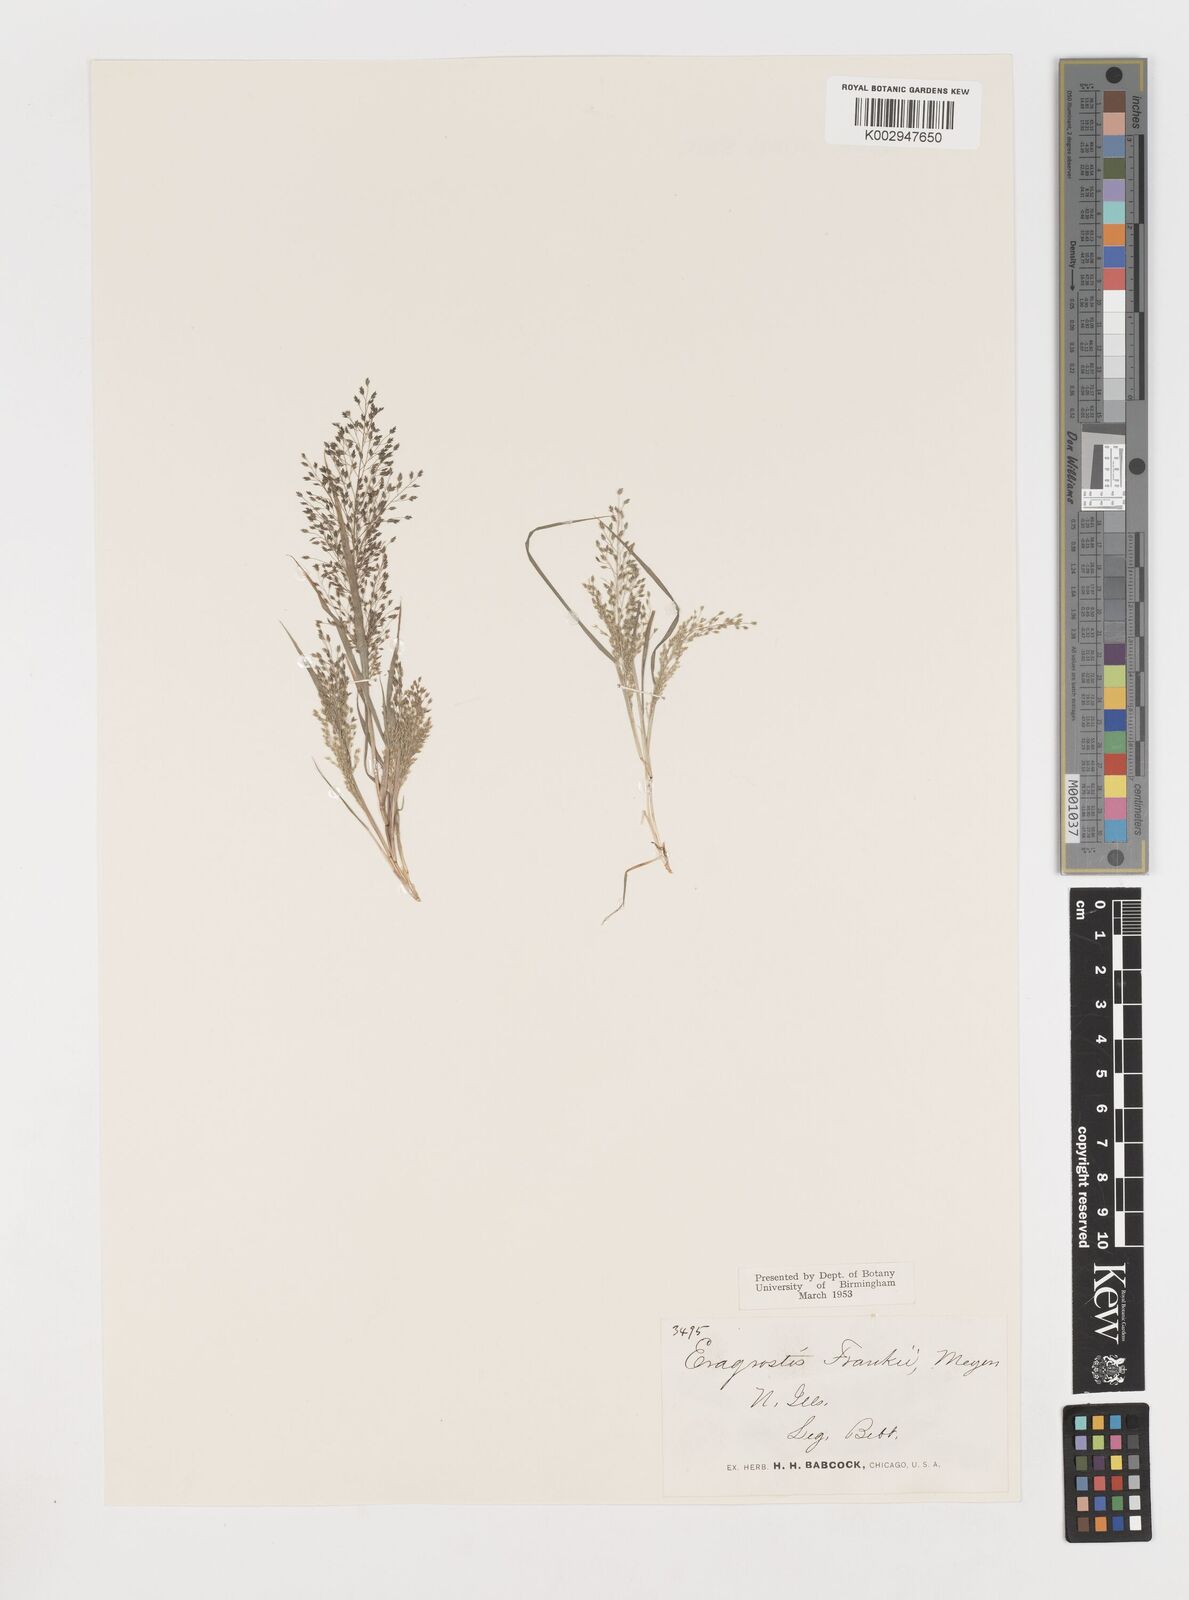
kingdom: Plantae
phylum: Tracheophyta
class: Liliopsida
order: Poales
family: Poaceae
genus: Eragrostis
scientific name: Eragrostis frankii
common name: Frank's lovegrass
